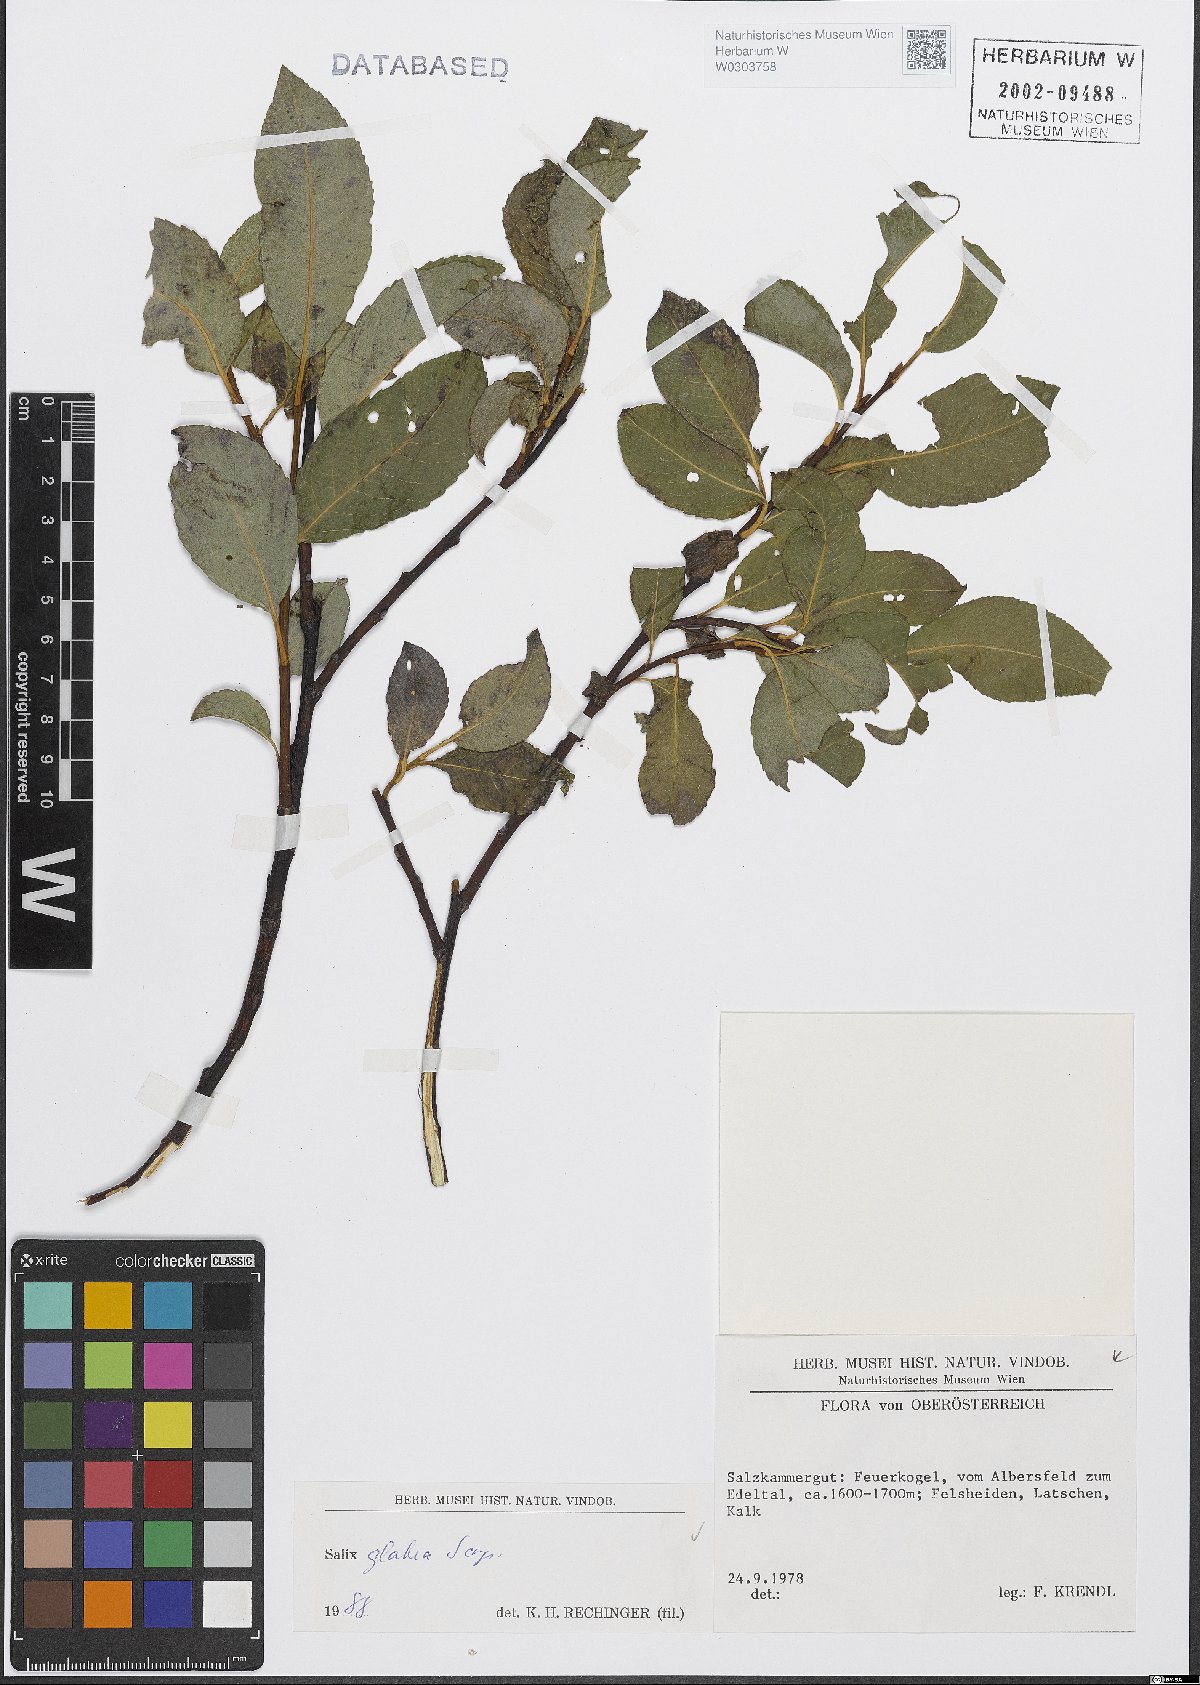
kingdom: Plantae
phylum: Tracheophyta
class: Magnoliopsida
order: Malpighiales
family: Salicaceae
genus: Salix
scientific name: Salix glabra
